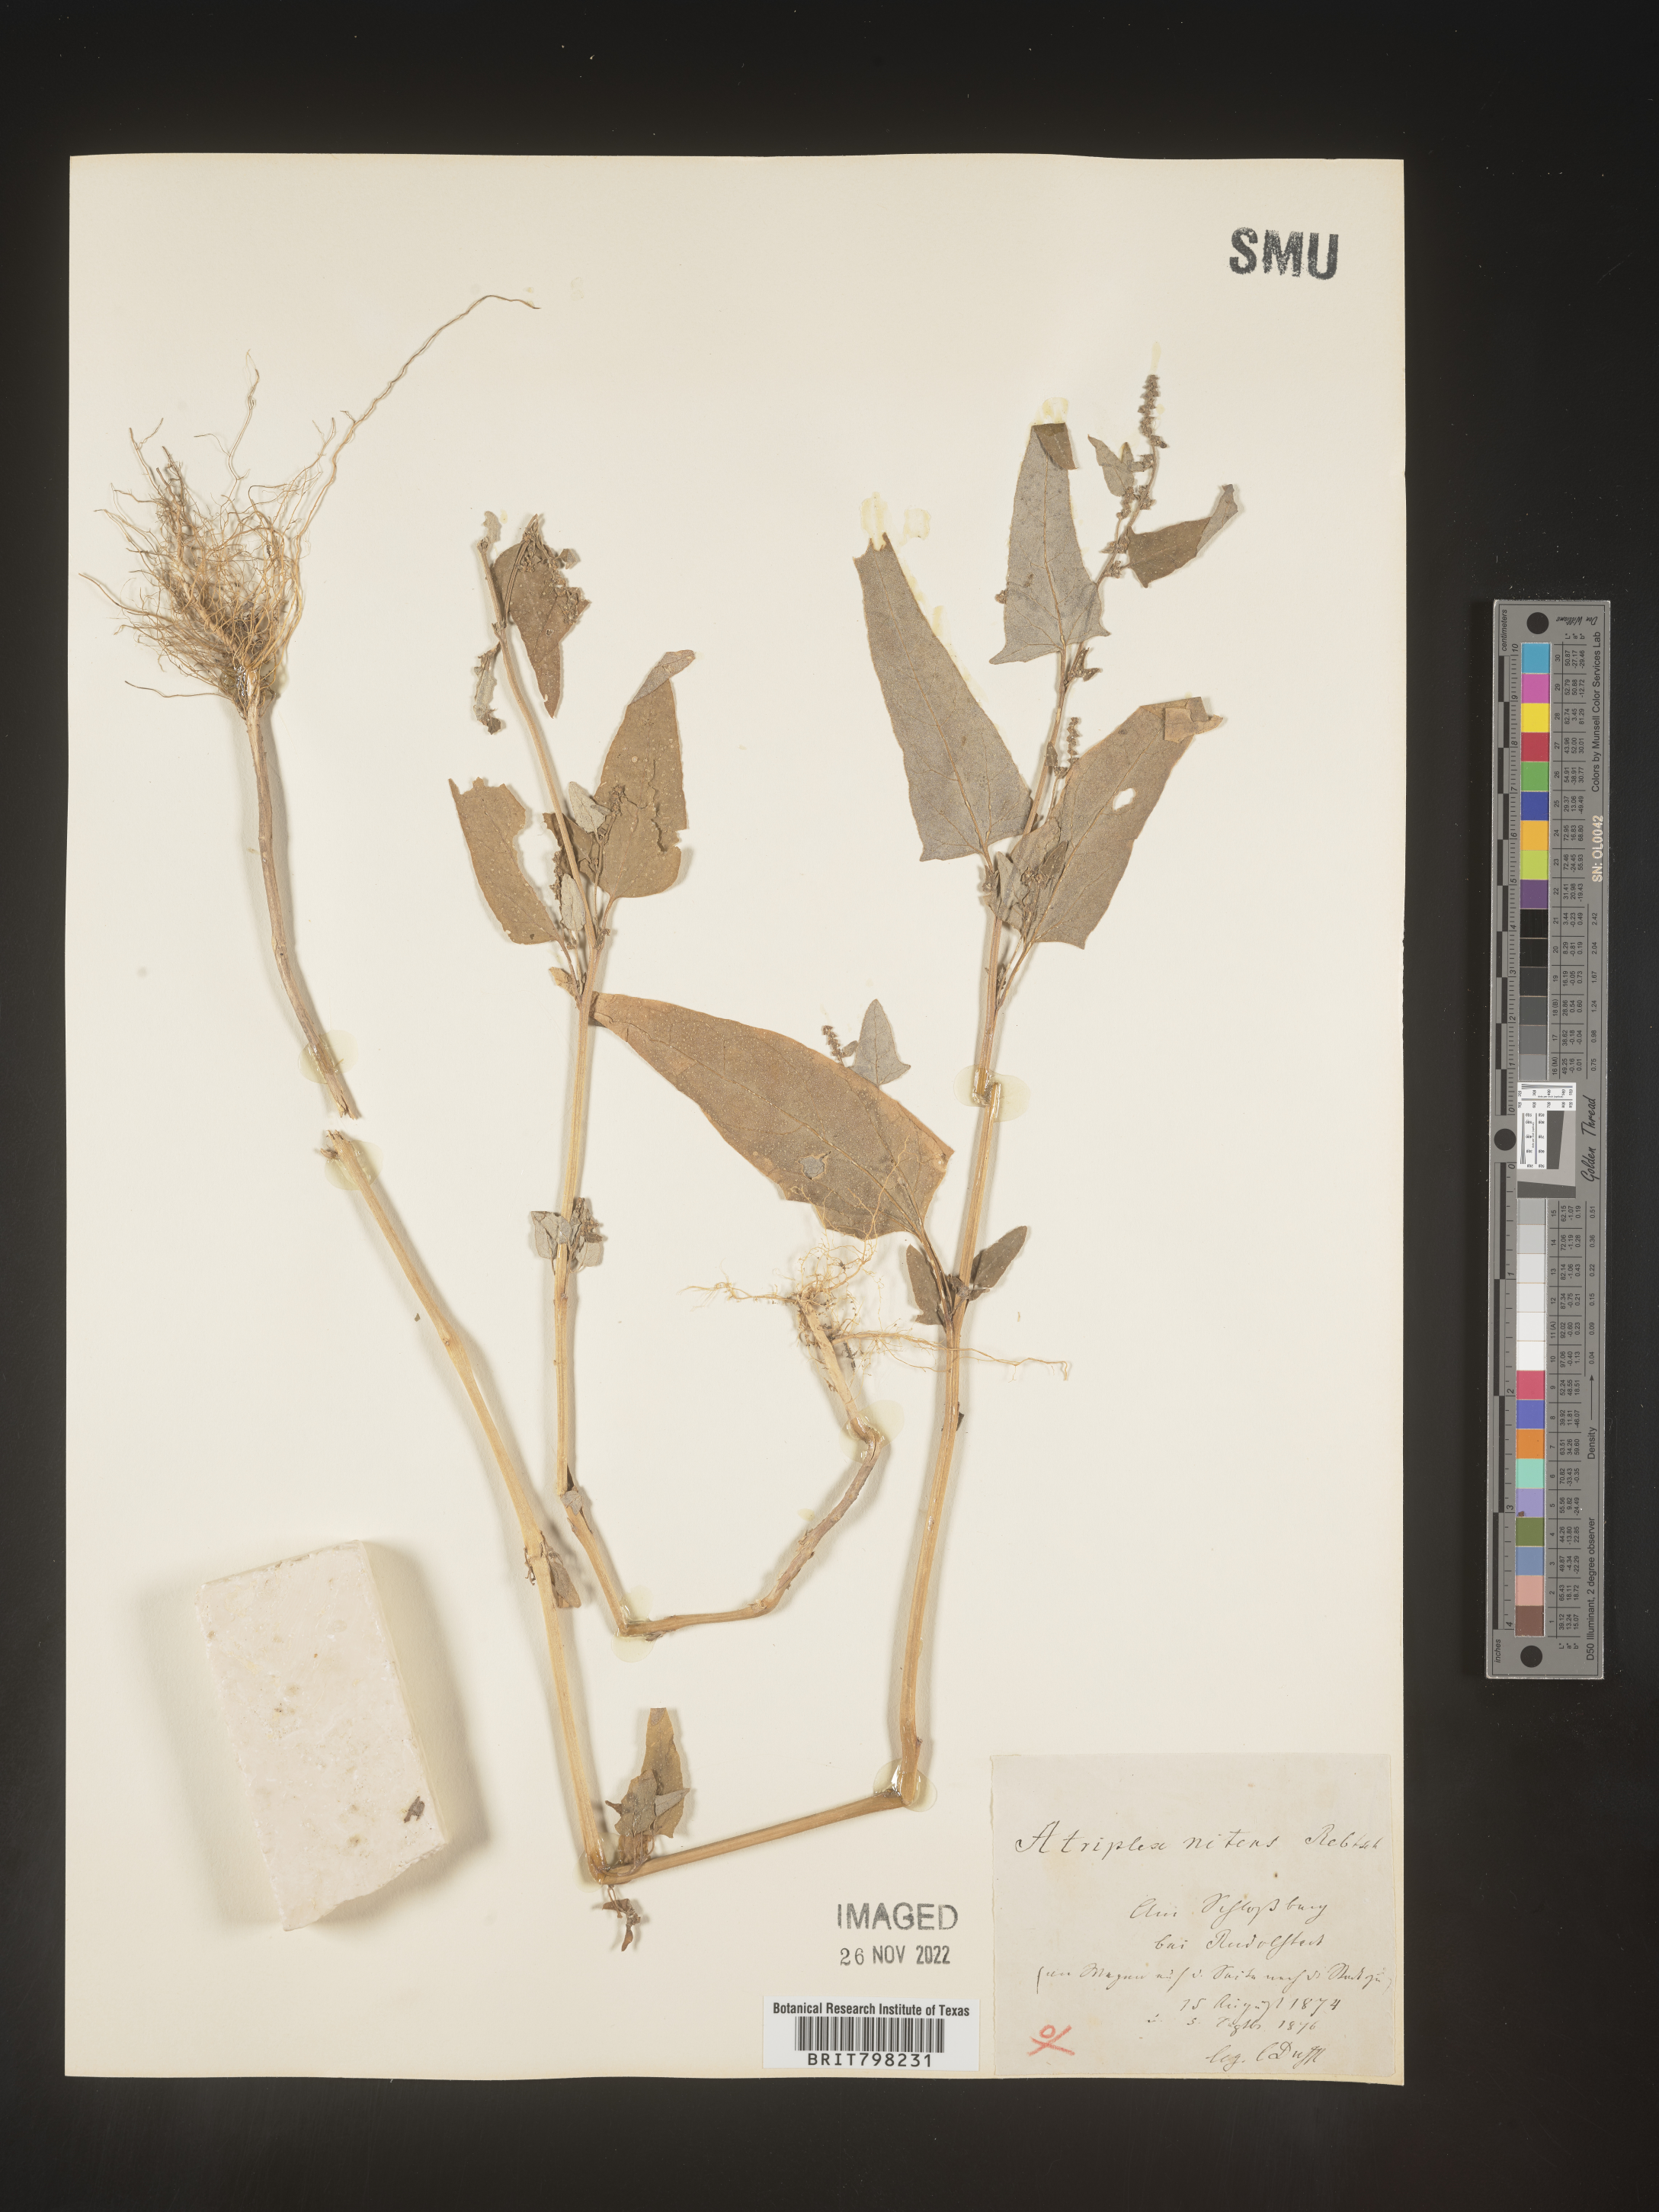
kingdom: Plantae
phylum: Tracheophyta
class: Magnoliopsida
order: Caryophyllales
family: Amaranthaceae
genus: Atriplex
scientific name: Atriplex
